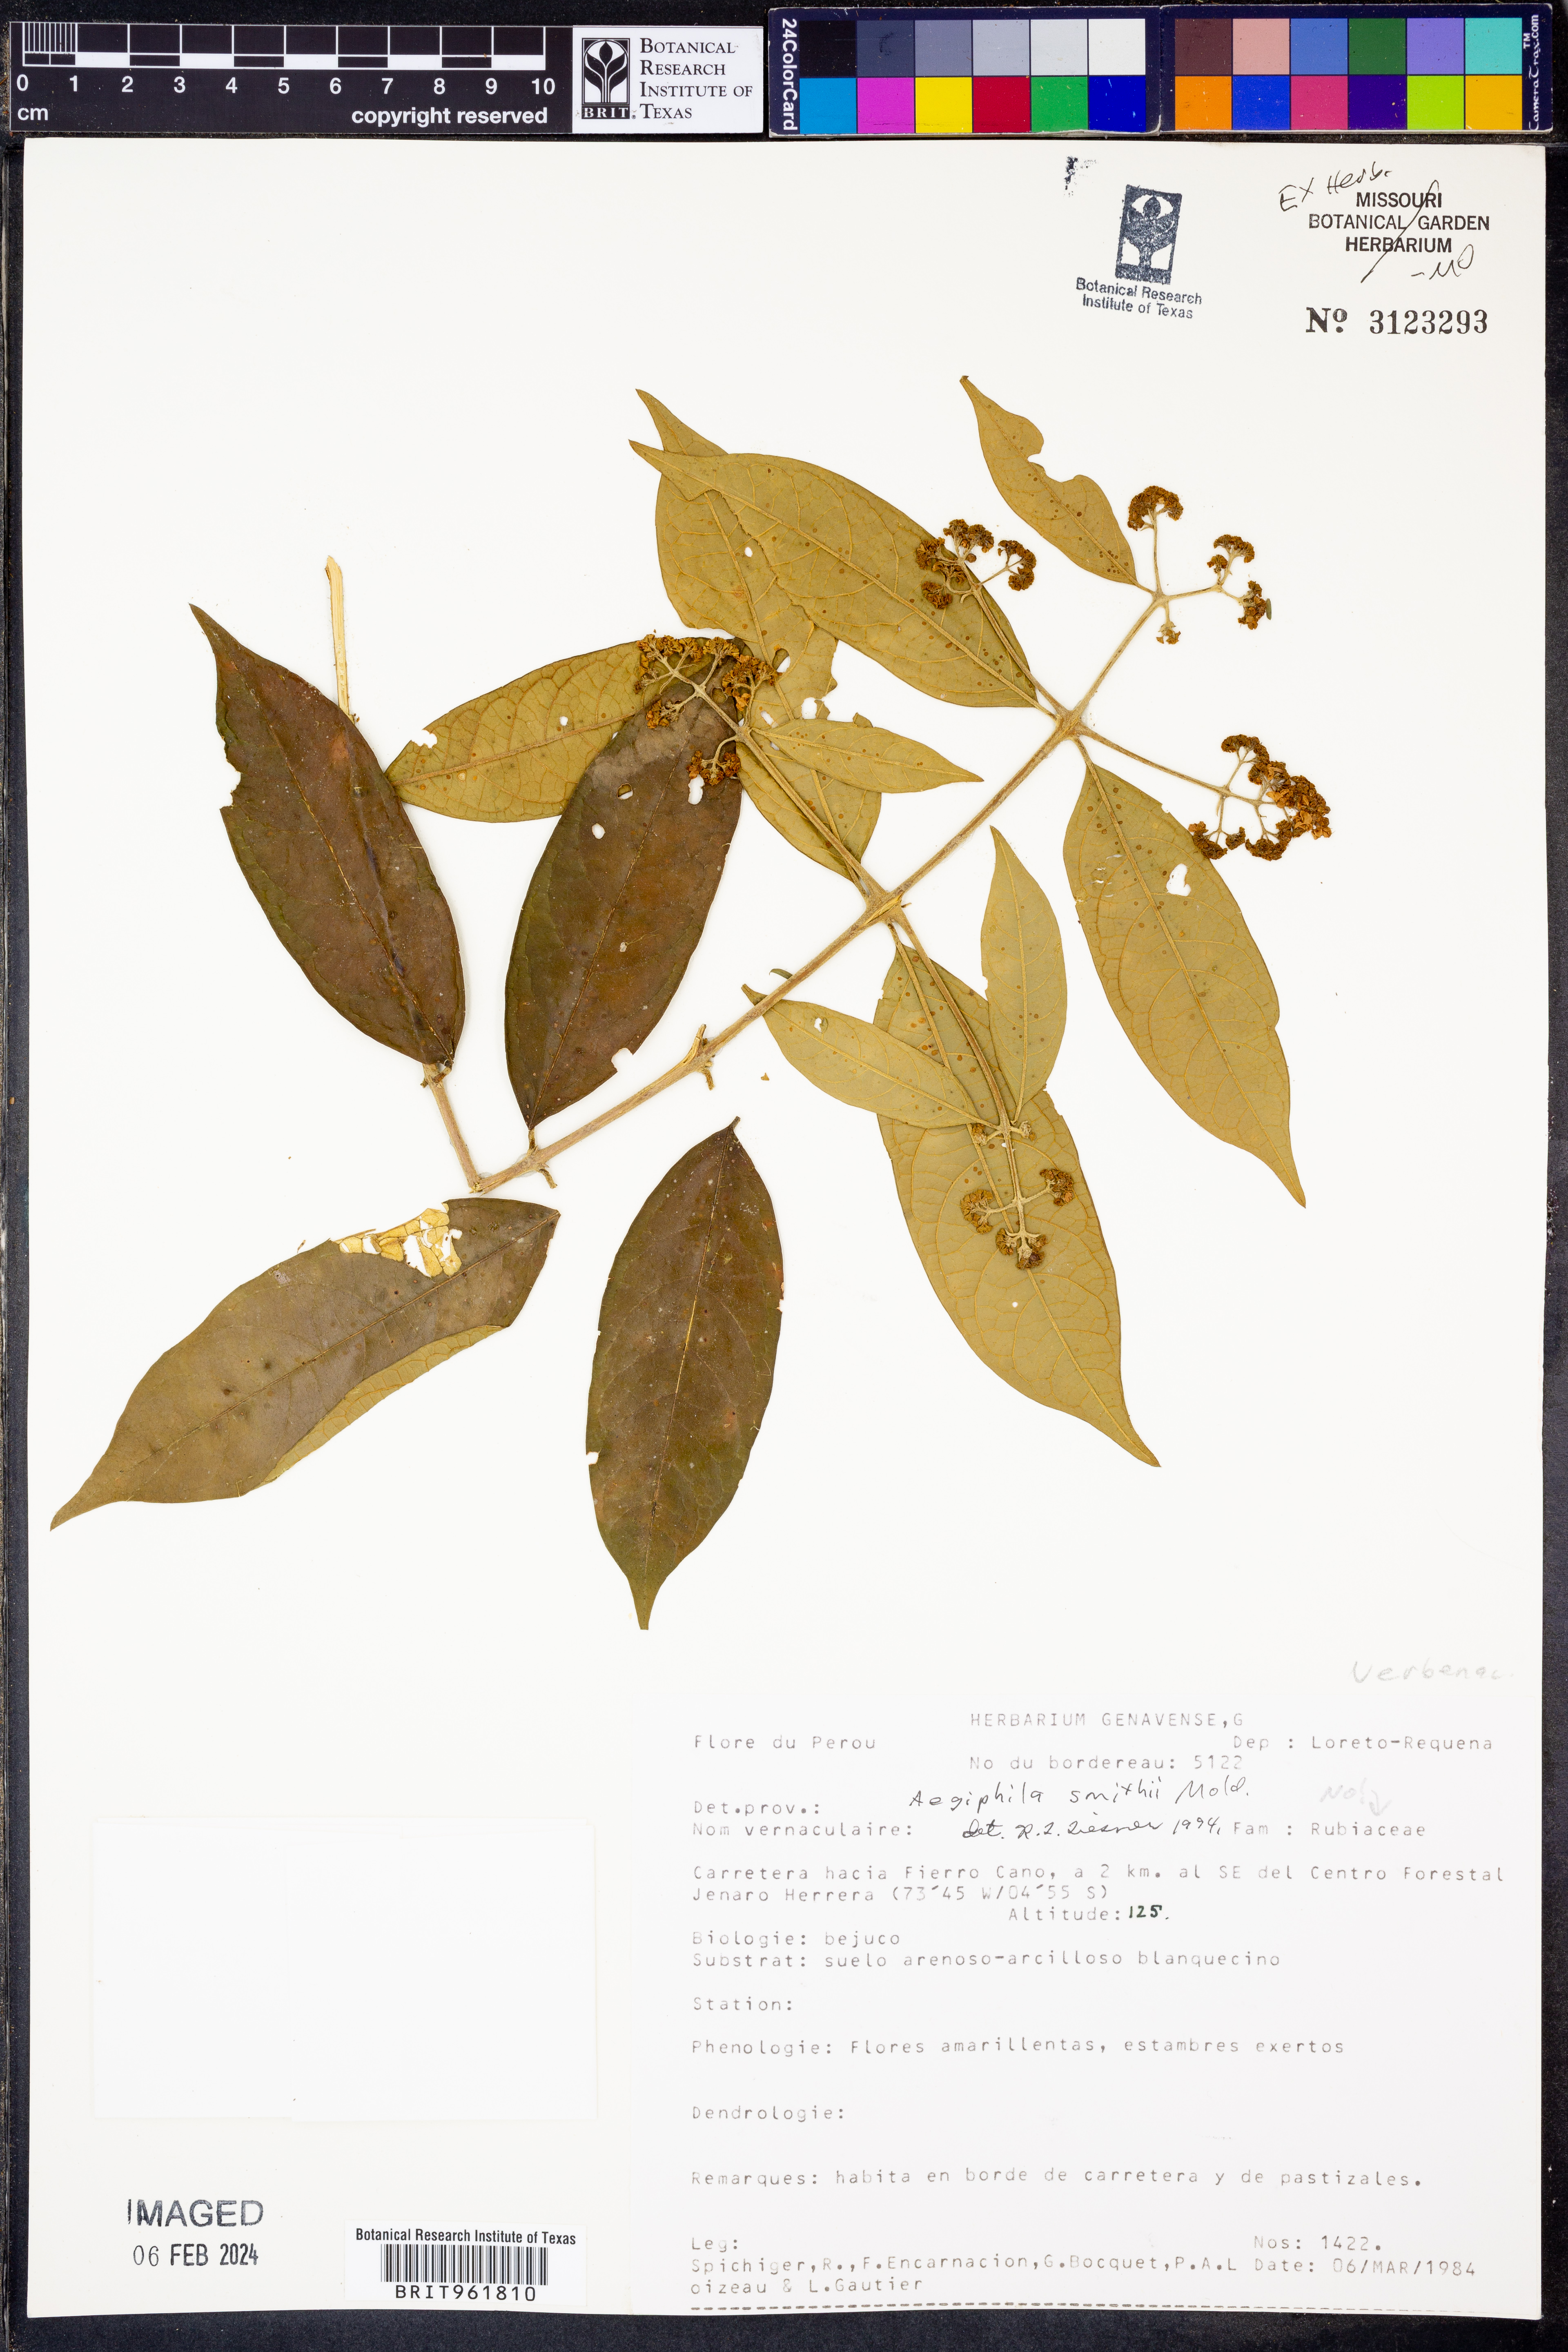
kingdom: Plantae
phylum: Tracheophyta
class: Magnoliopsida
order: Lamiales
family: Lamiaceae
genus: Aegiphila
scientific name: Aegiphila
